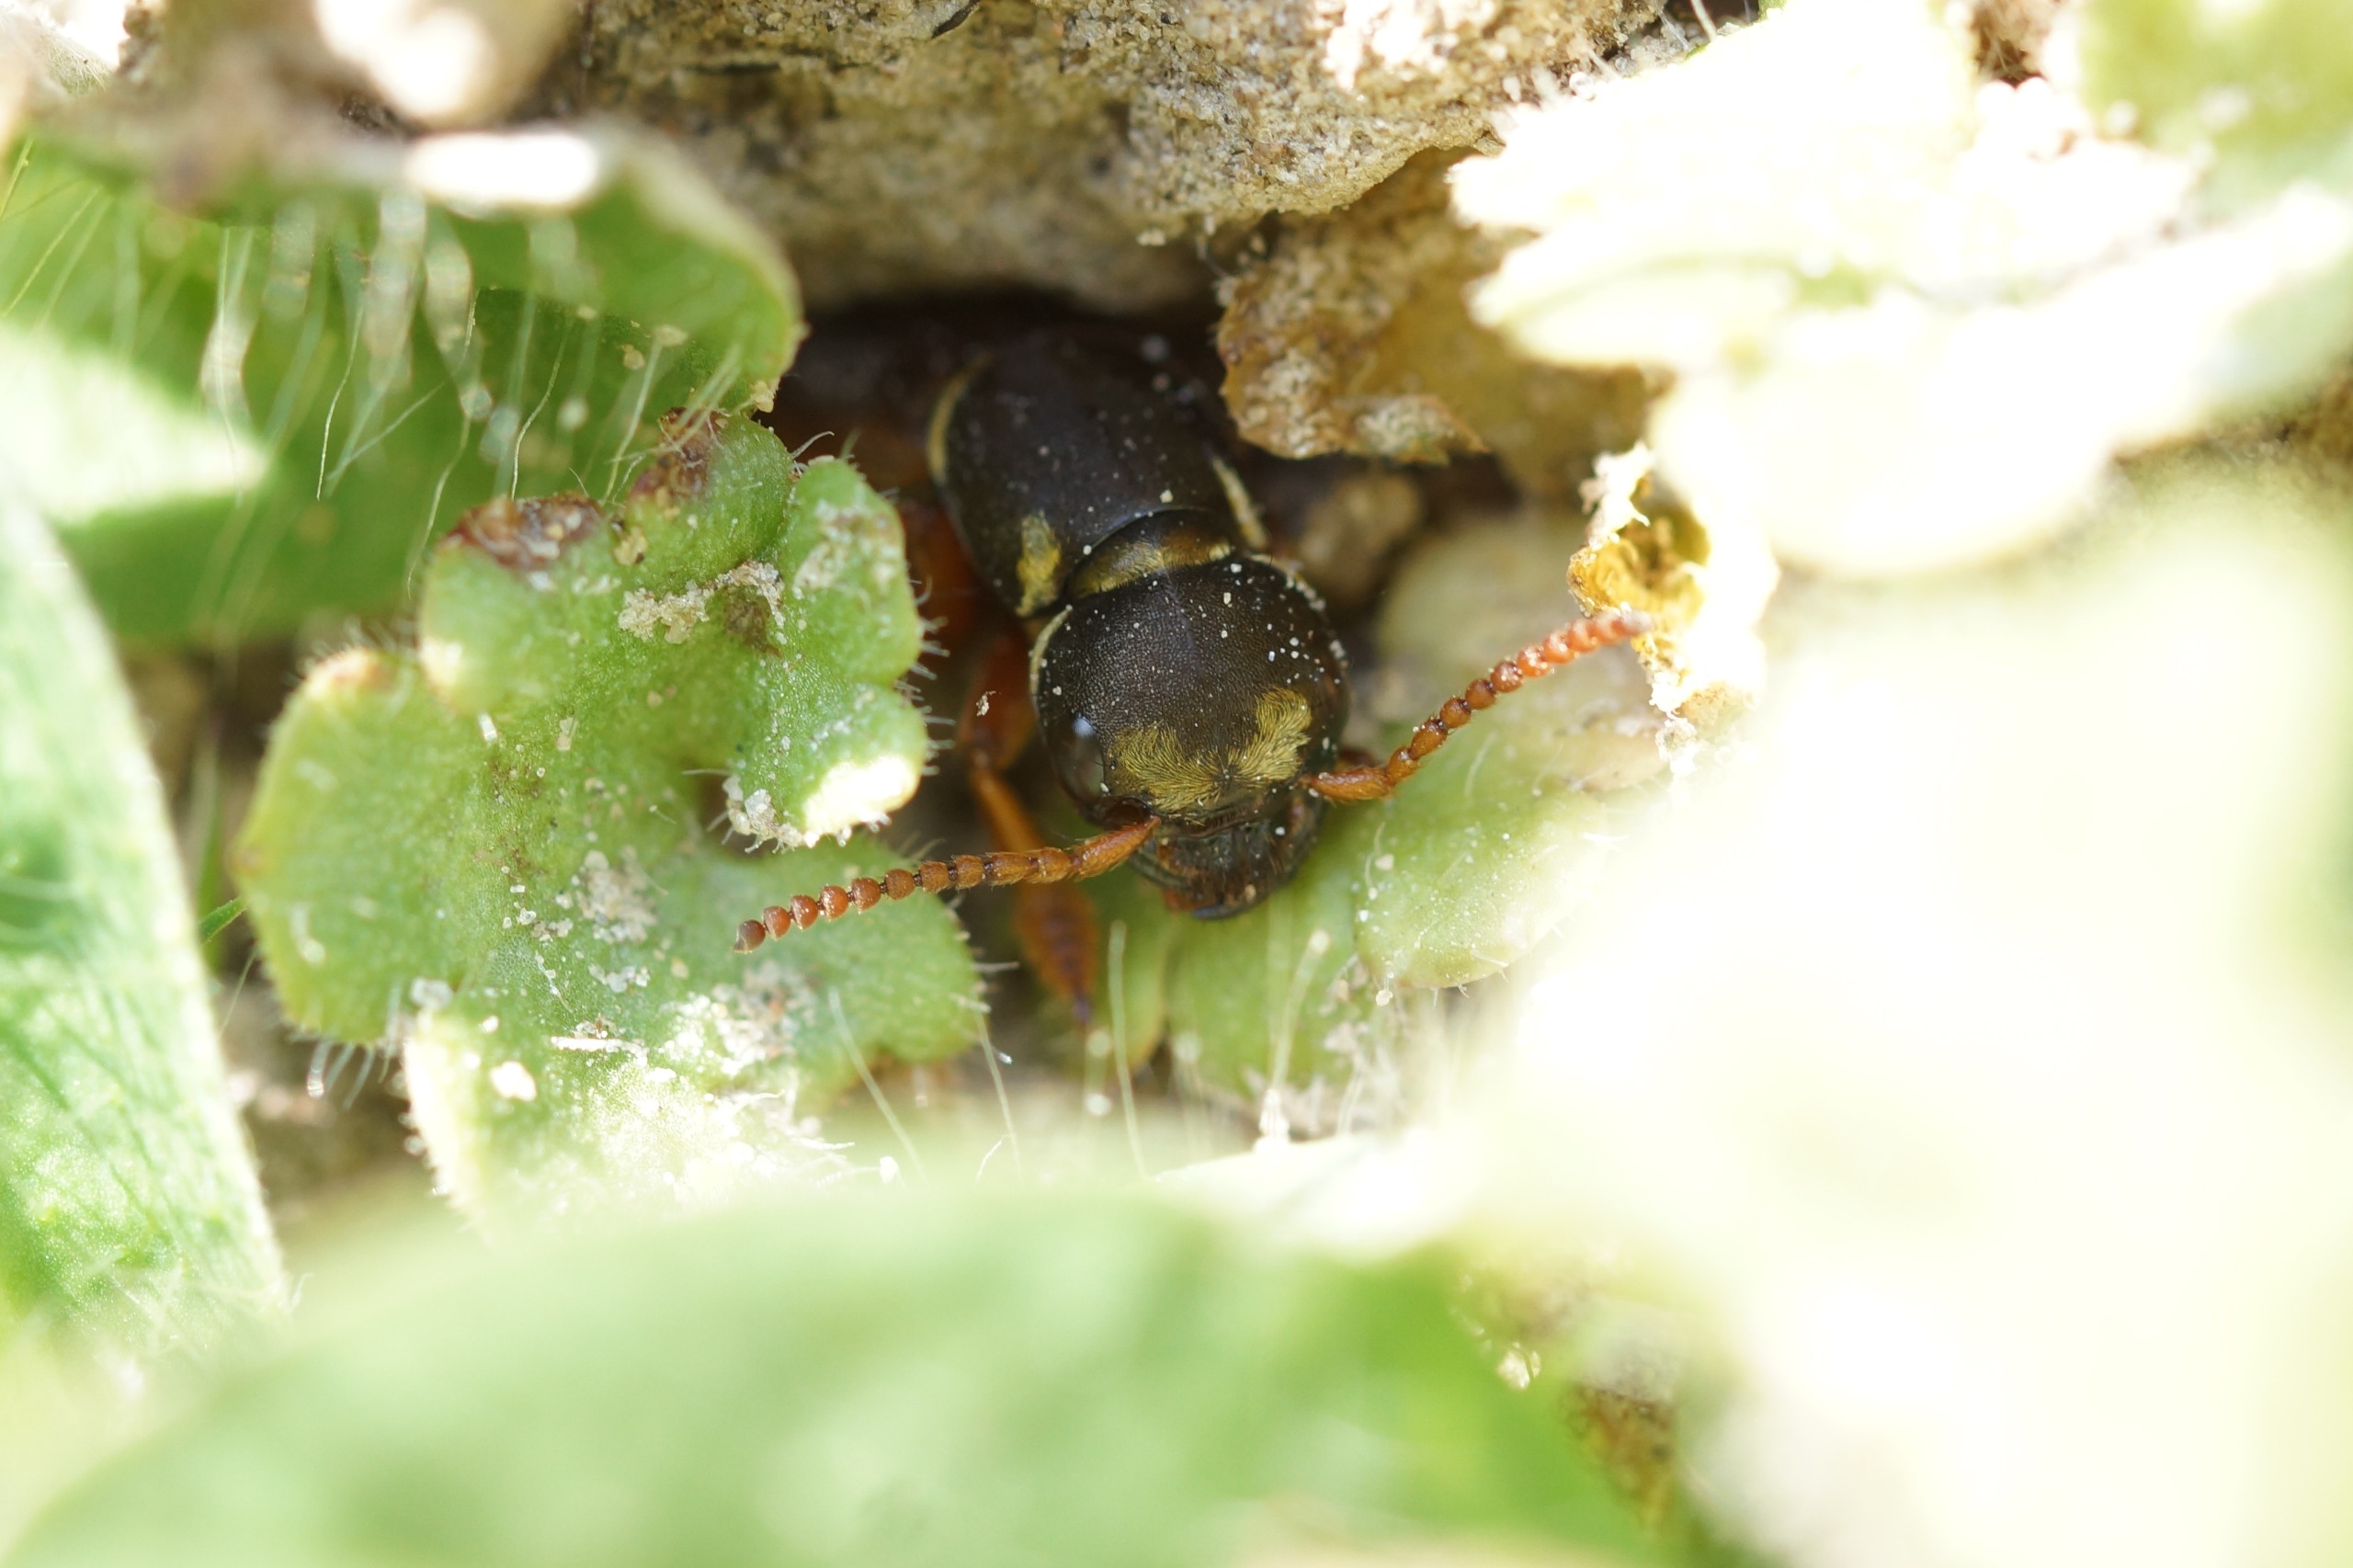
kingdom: Animalia
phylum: Arthropoda
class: Insecta
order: Coleoptera
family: Staphylinidae
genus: Staphylinus
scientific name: Staphylinus caesareus
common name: Kejserrovbille
